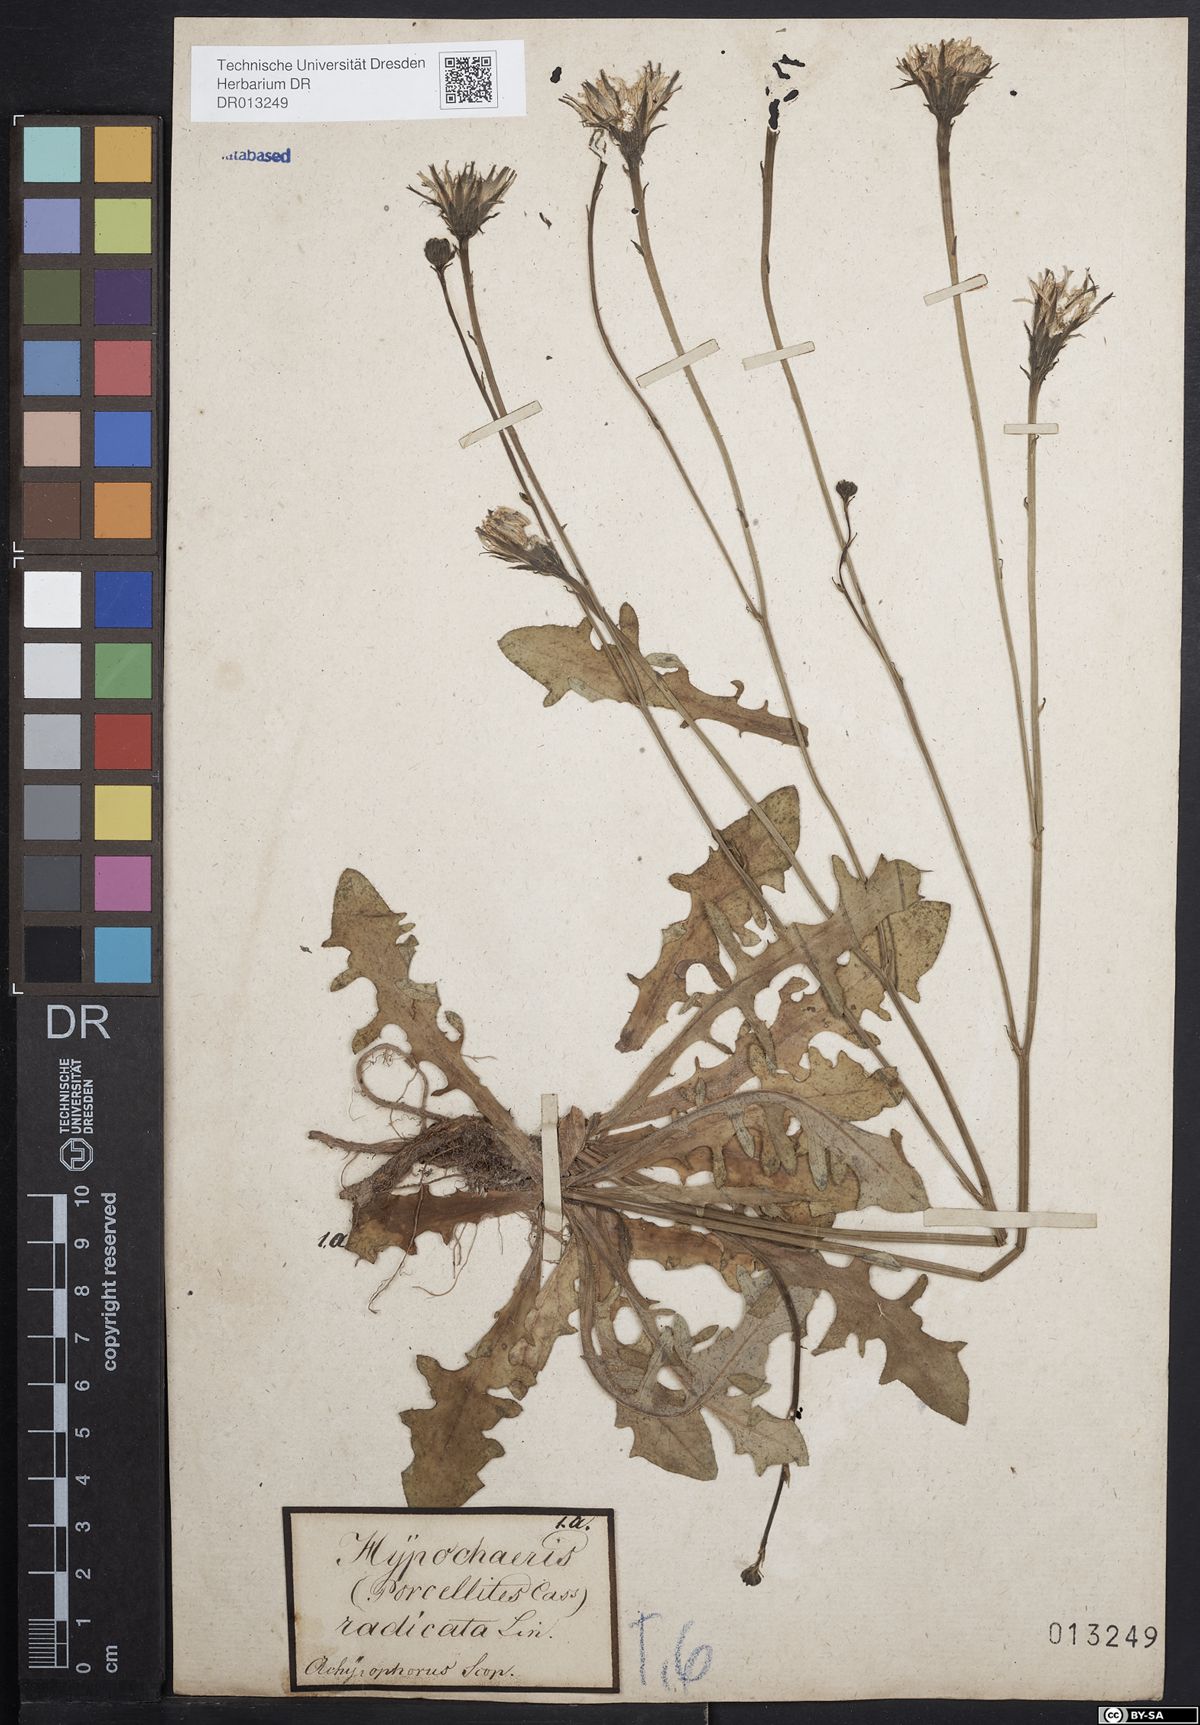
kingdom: Plantae
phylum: Tracheophyta
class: Magnoliopsida
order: Asterales
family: Asteraceae
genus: Hypochaeris
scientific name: Hypochaeris radicata
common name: Flatweed
